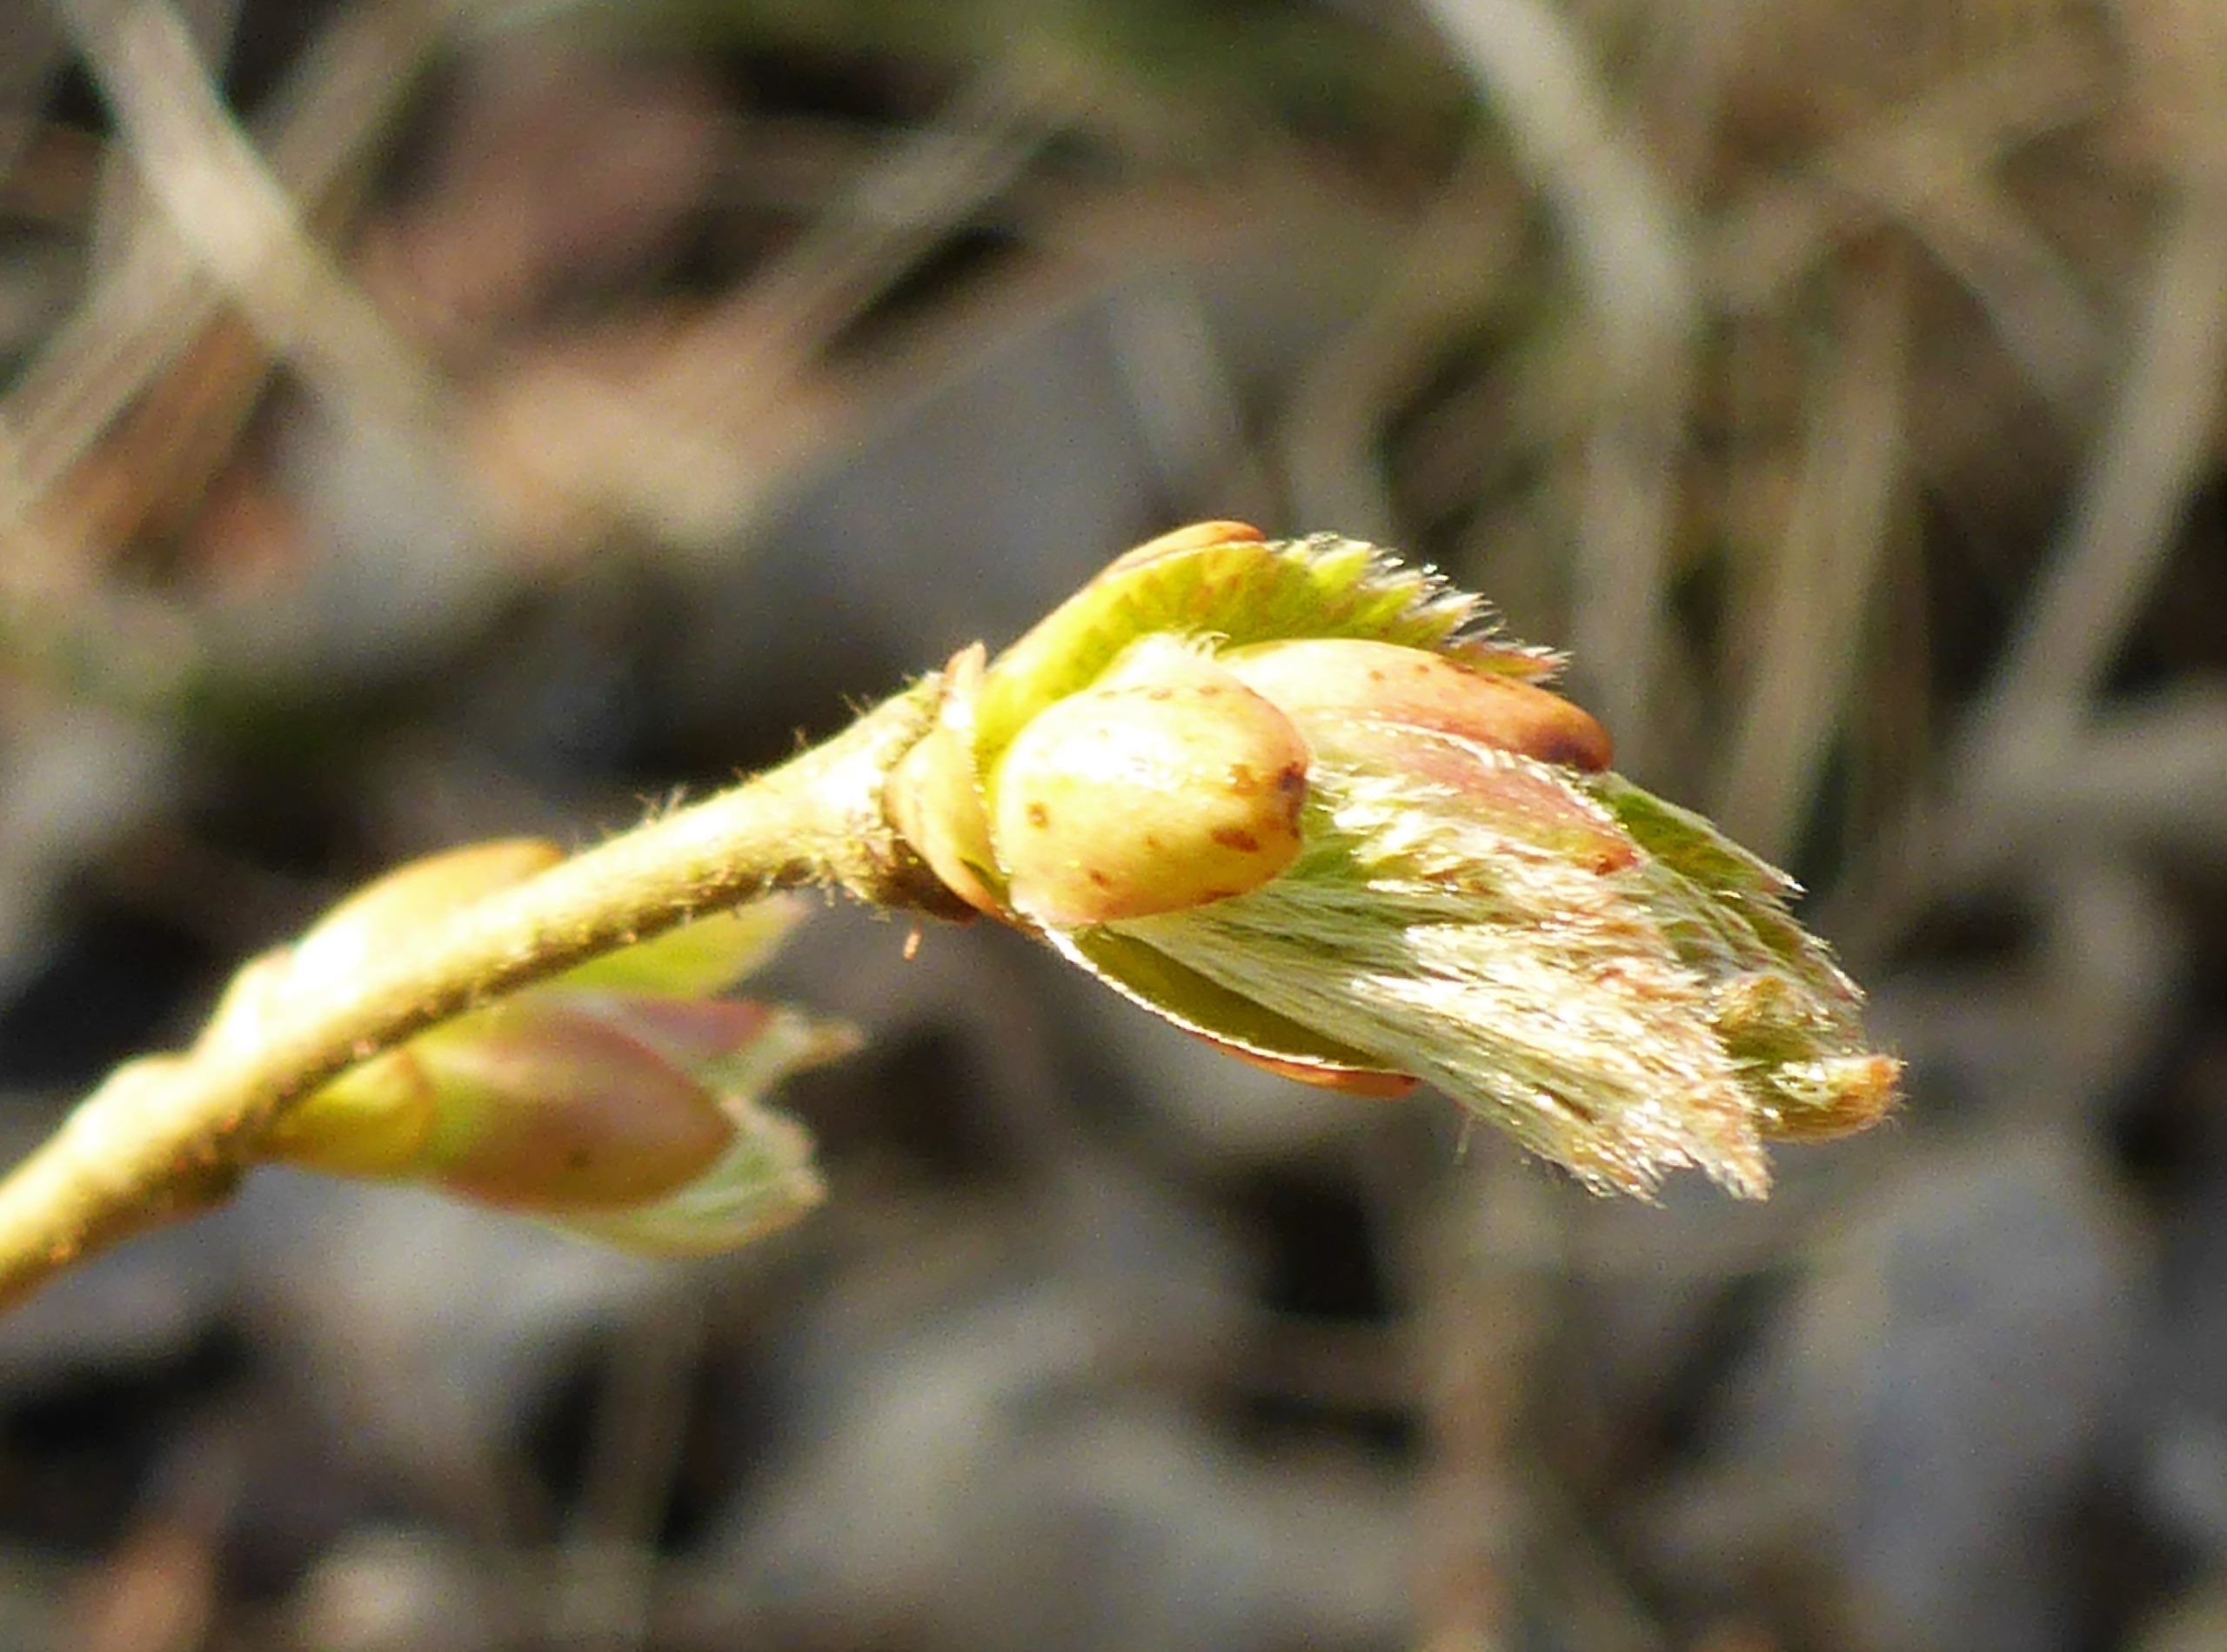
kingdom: Plantae
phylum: Tracheophyta
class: Magnoliopsida
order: Fagales
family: Betulaceae
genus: Corylus
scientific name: Corylus avellana
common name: Hassel
